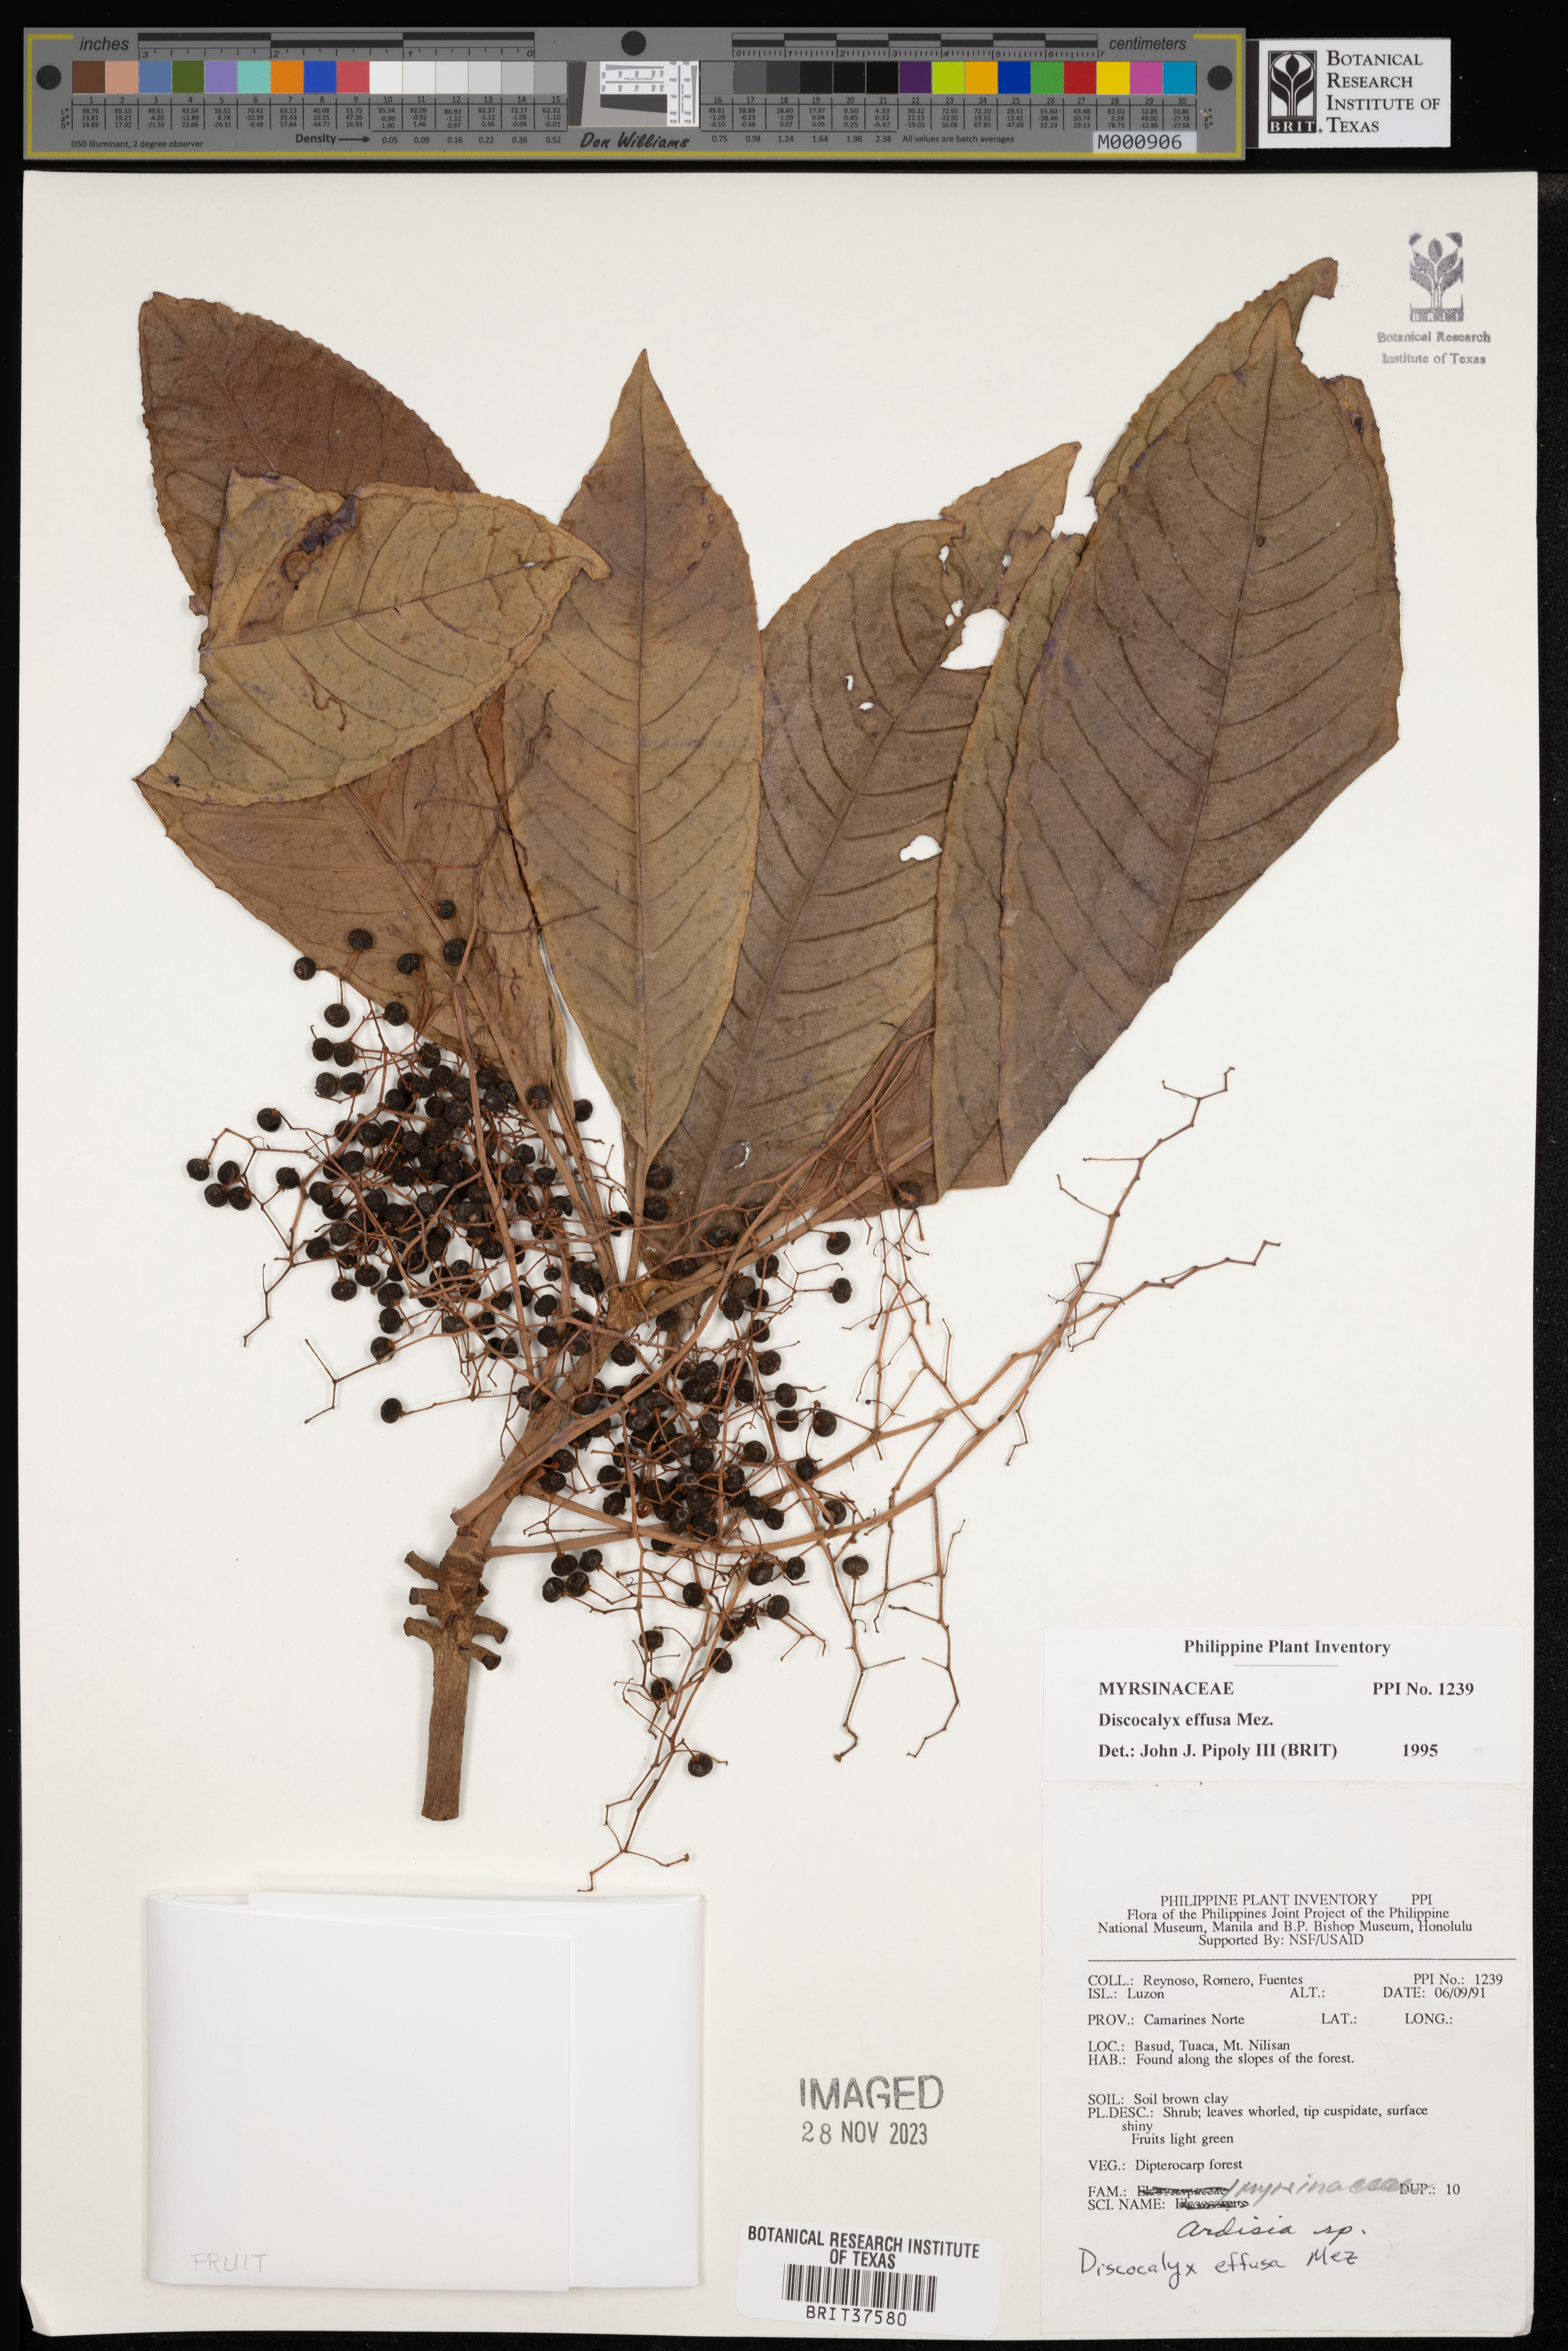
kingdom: Plantae
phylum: Tracheophyta
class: Magnoliopsida
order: Ericales
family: Primulaceae
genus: Discocalyx
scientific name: Discocalyx effusa
